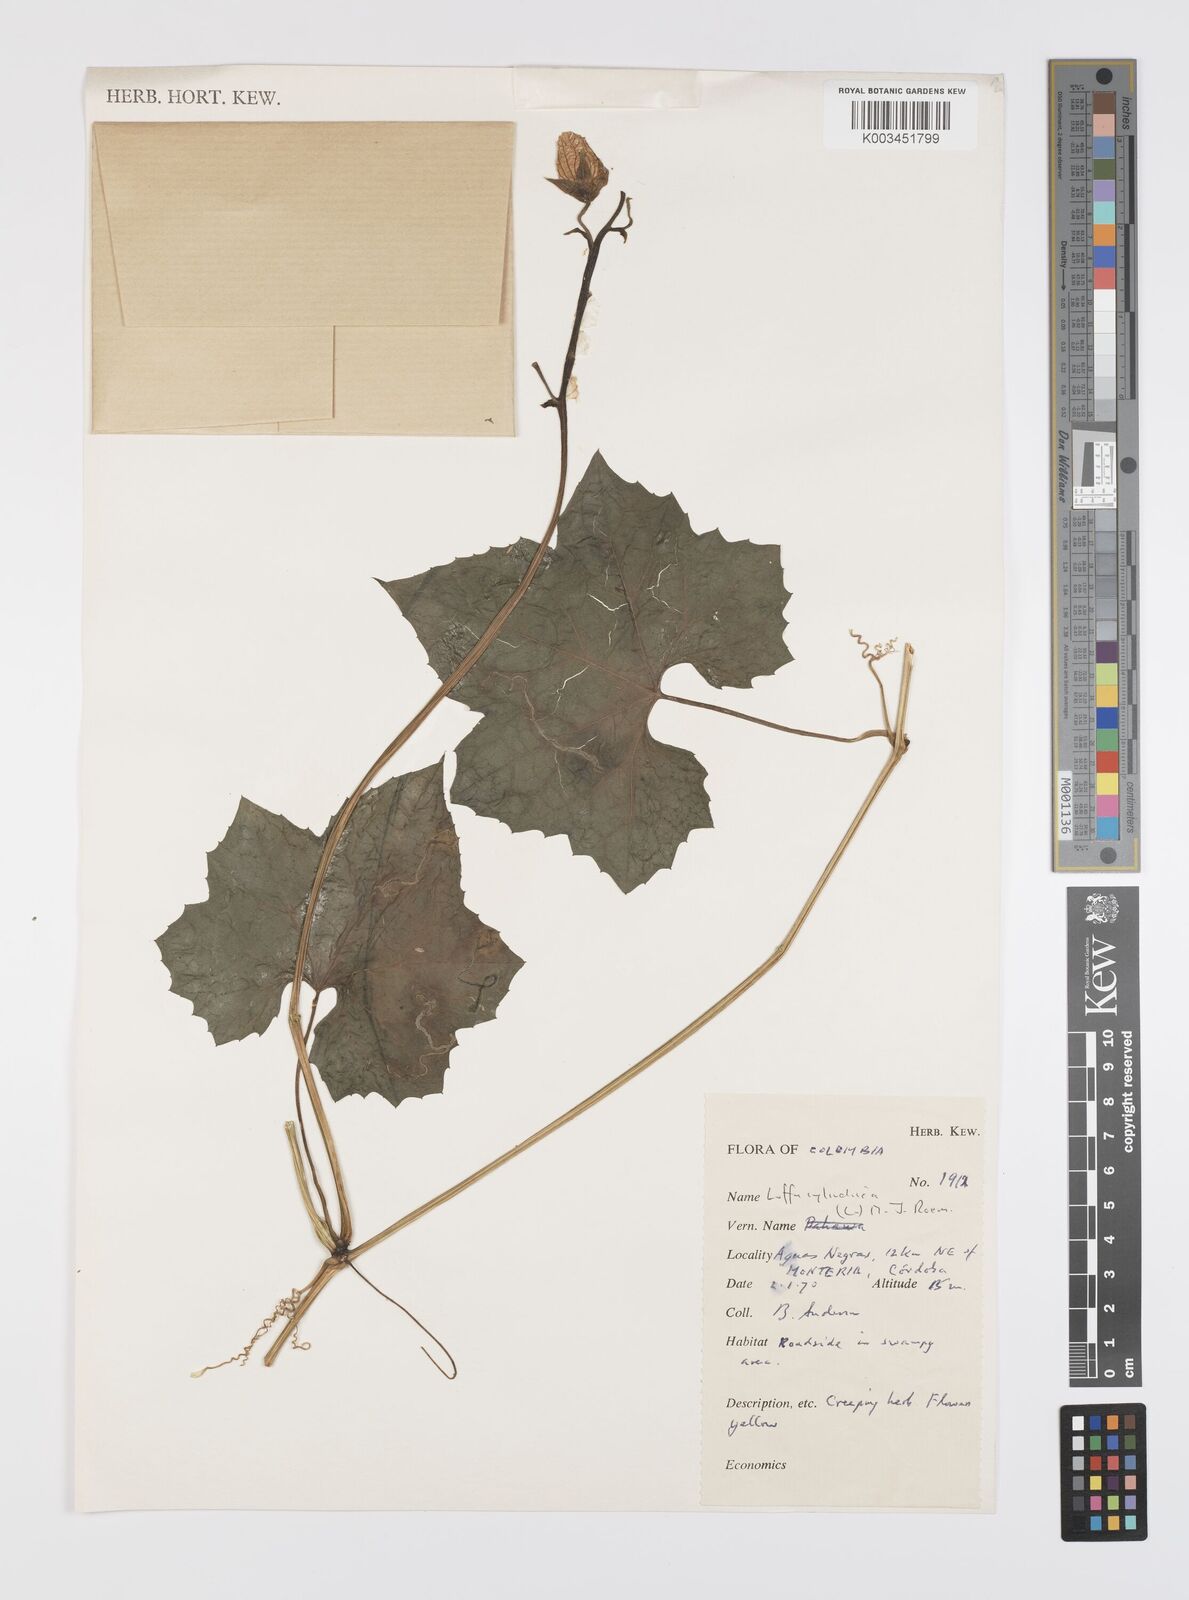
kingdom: Plantae
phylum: Tracheophyta
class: Magnoliopsida
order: Cucurbitales
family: Cucurbitaceae
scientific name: Cucurbitaceae
